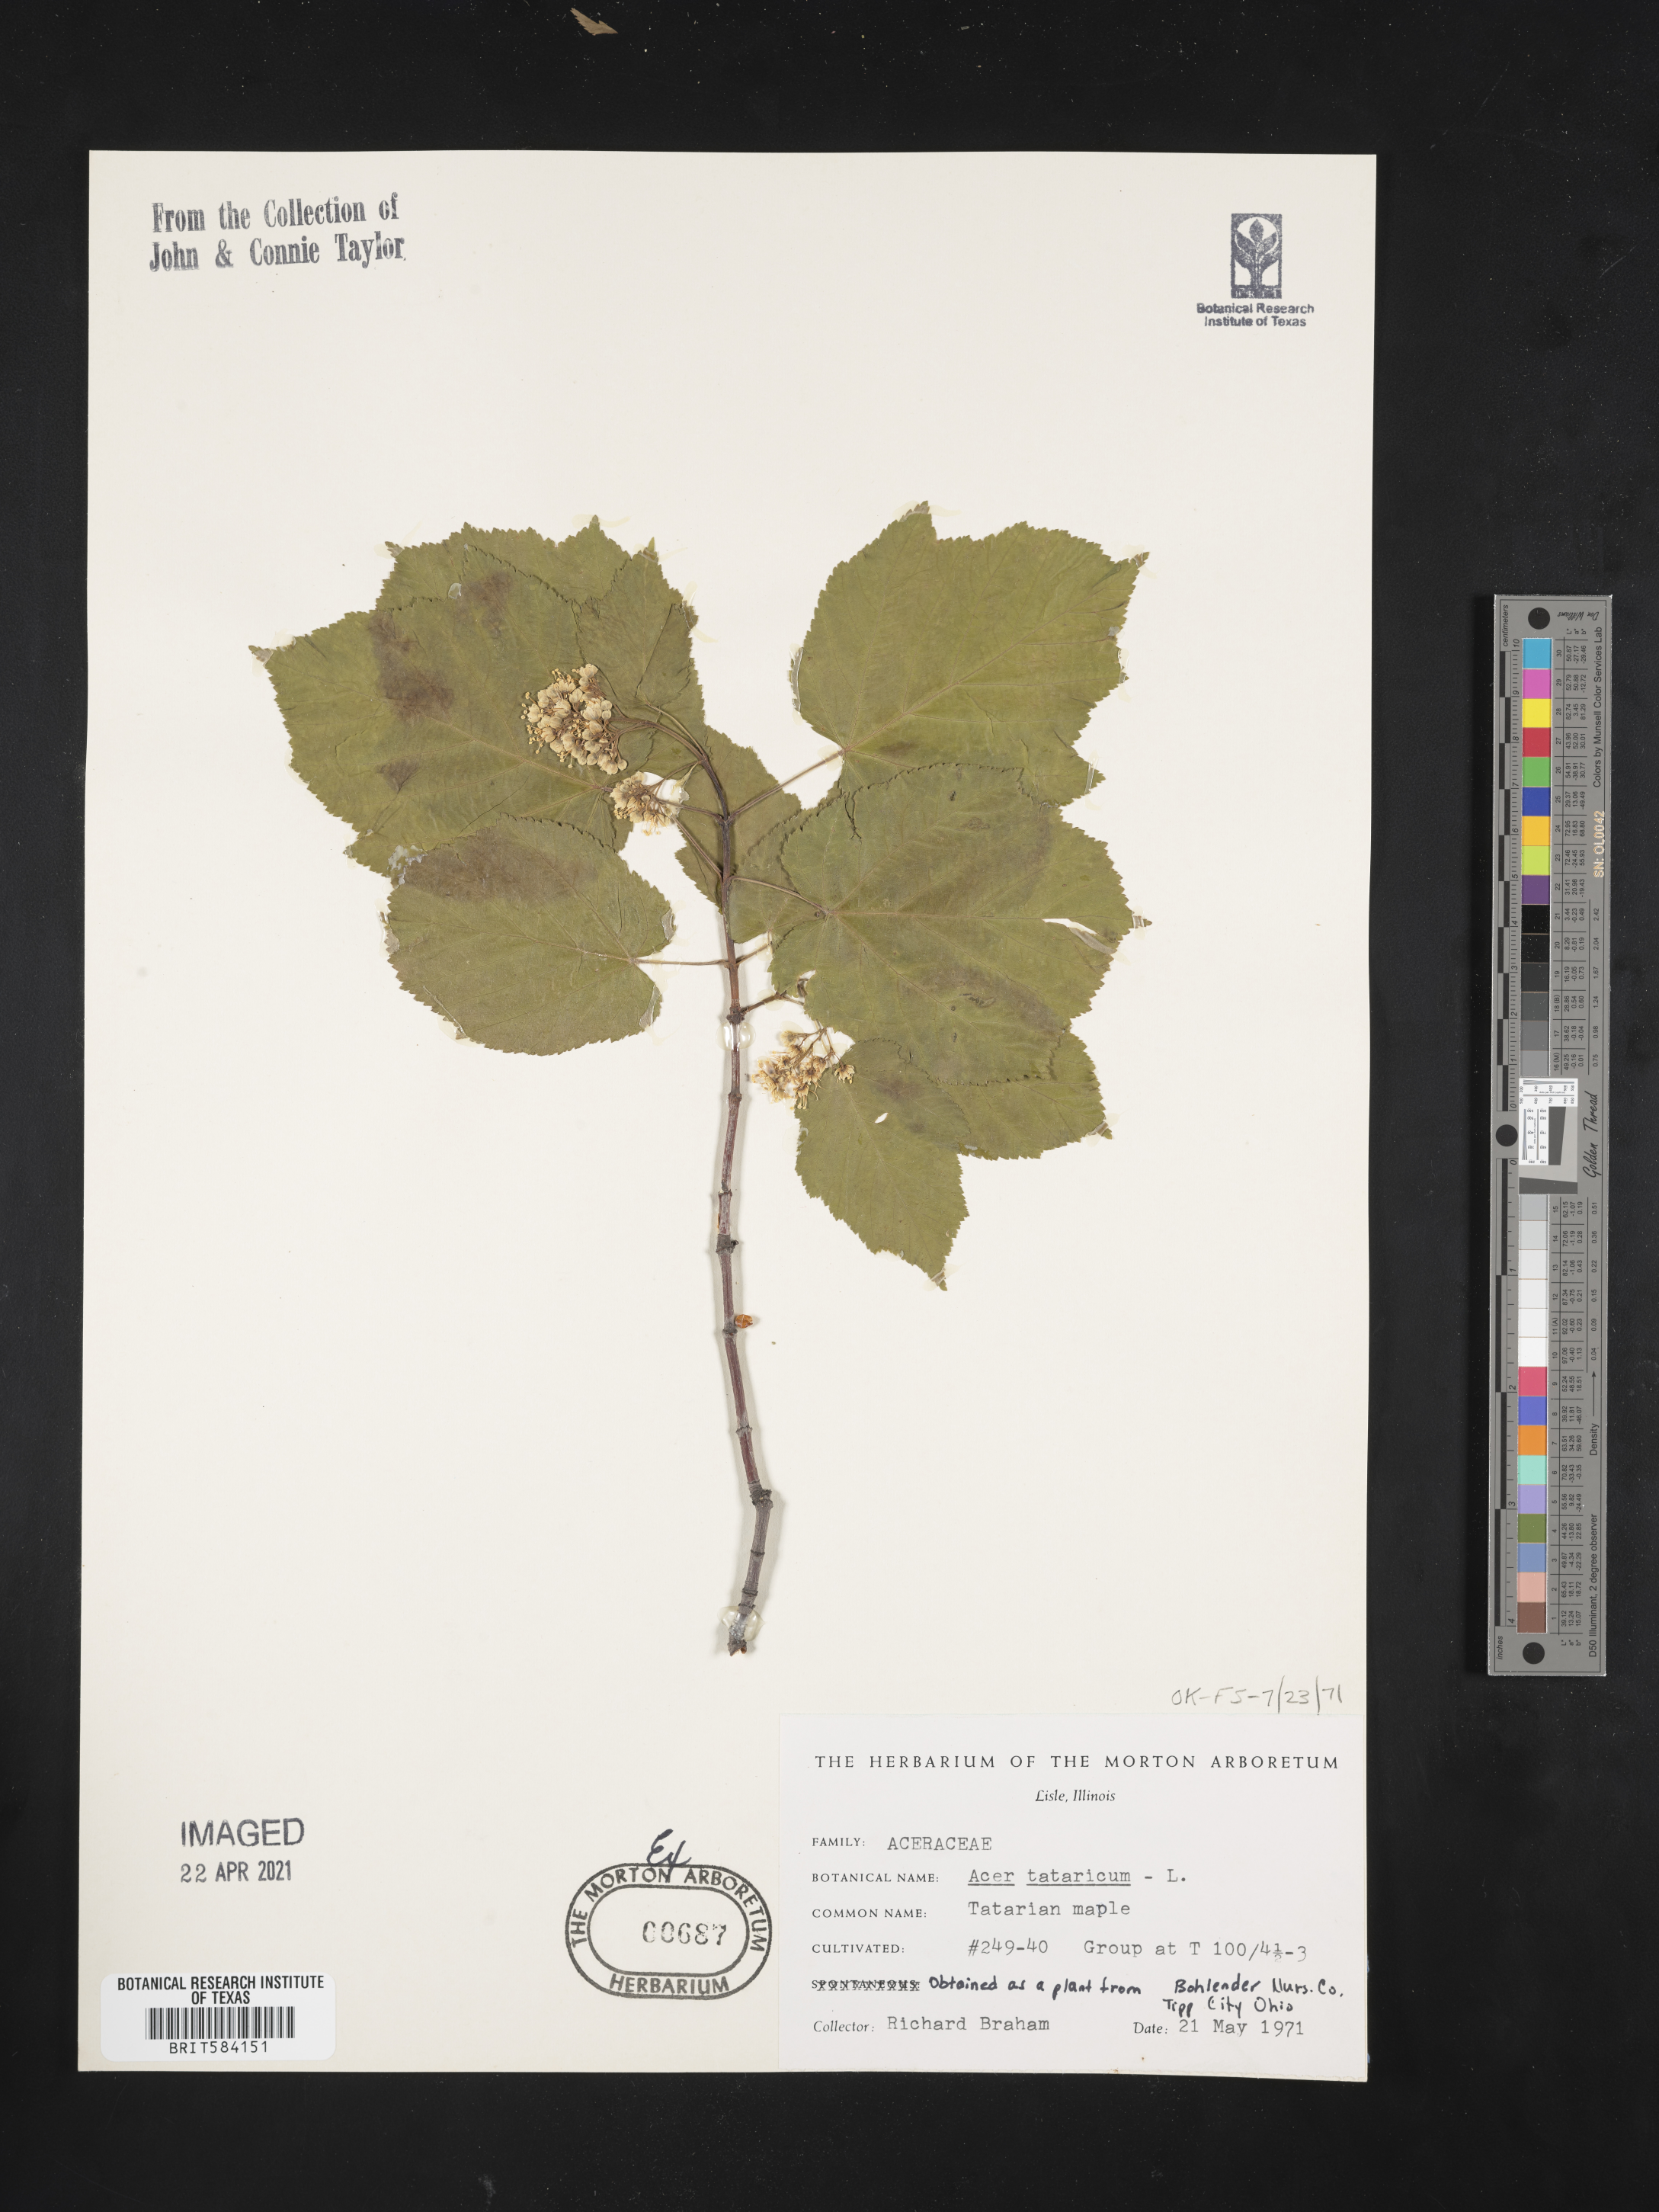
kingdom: Plantae
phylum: Tracheophyta
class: Magnoliopsida
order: Sapindales
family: Sapindaceae
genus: Acer
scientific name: Acer tataricum
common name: Tartar maple
